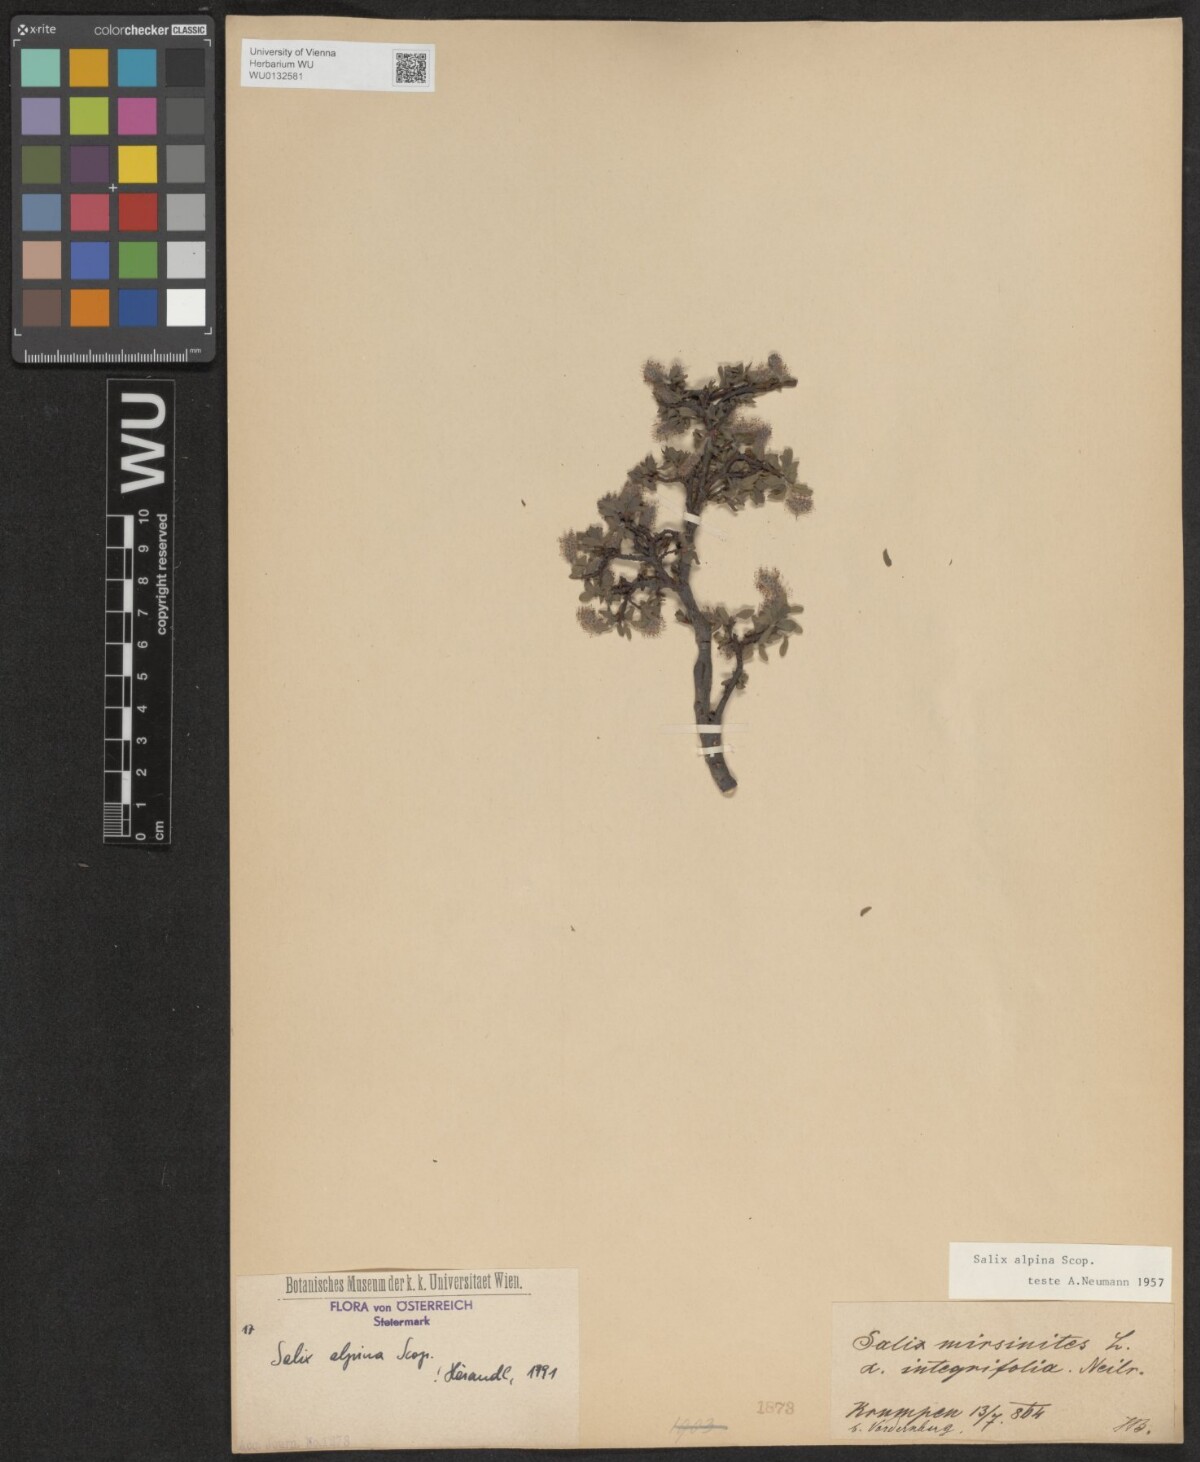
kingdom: Plantae
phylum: Tracheophyta
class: Magnoliopsida
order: Malpighiales
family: Salicaceae
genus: Salix
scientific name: Salix alpina
